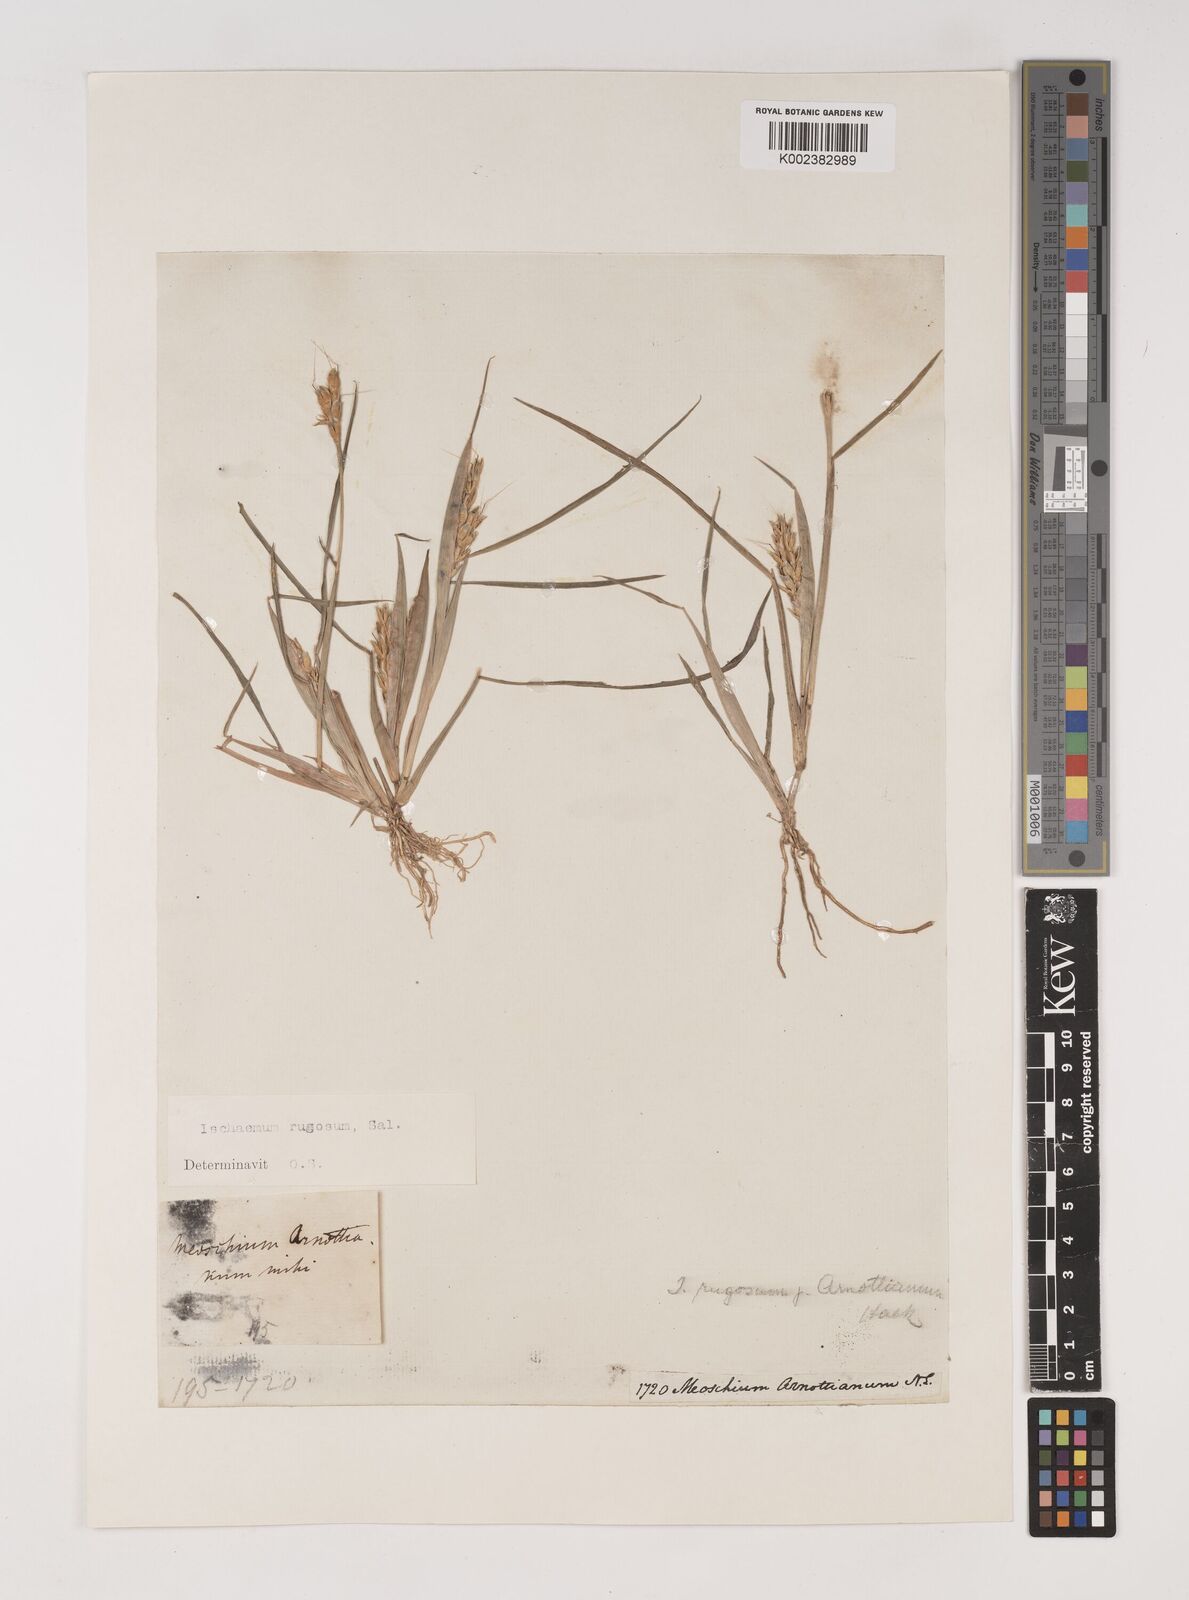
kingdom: Plantae
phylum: Tracheophyta
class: Liliopsida
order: Poales
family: Poaceae
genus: Ischaemum
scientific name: Ischaemum rugosum
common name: Saramatta grass
